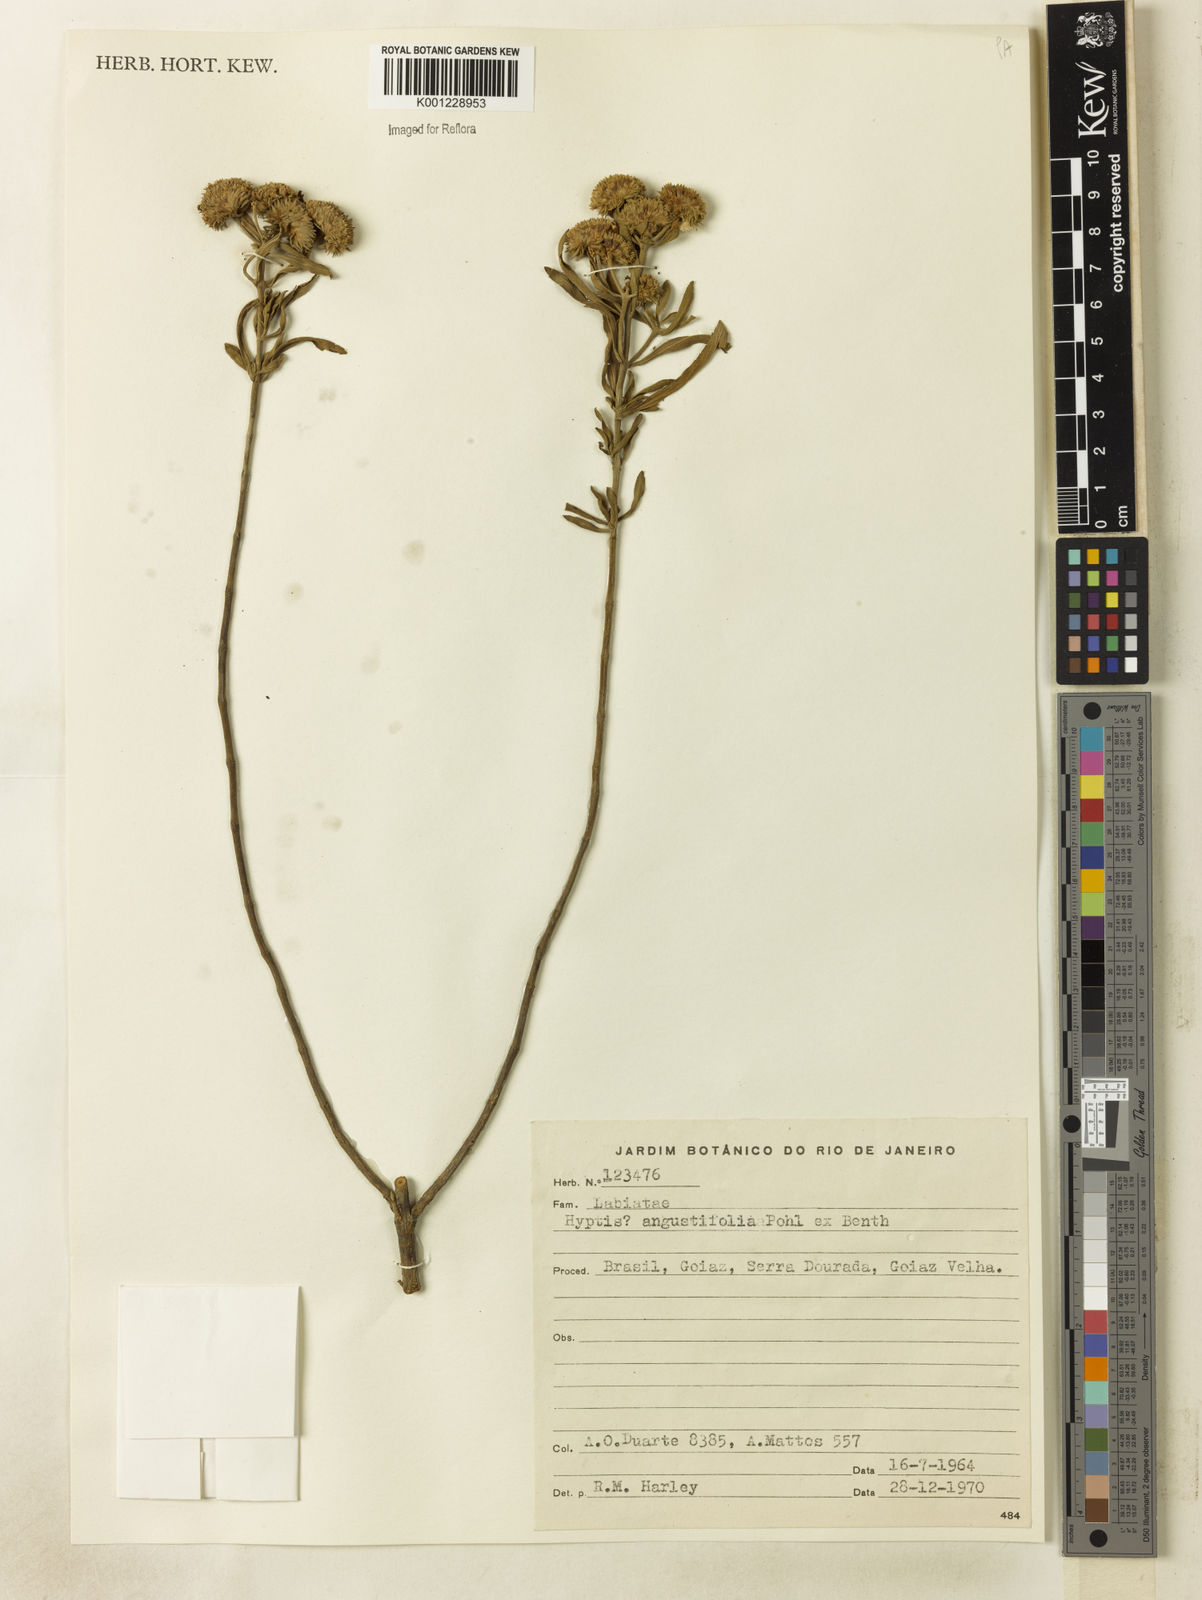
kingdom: Plantae
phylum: Tracheophyta
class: Magnoliopsida
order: Lamiales
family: Lamiaceae
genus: Hyptis
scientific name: Hyptis angustifolia
